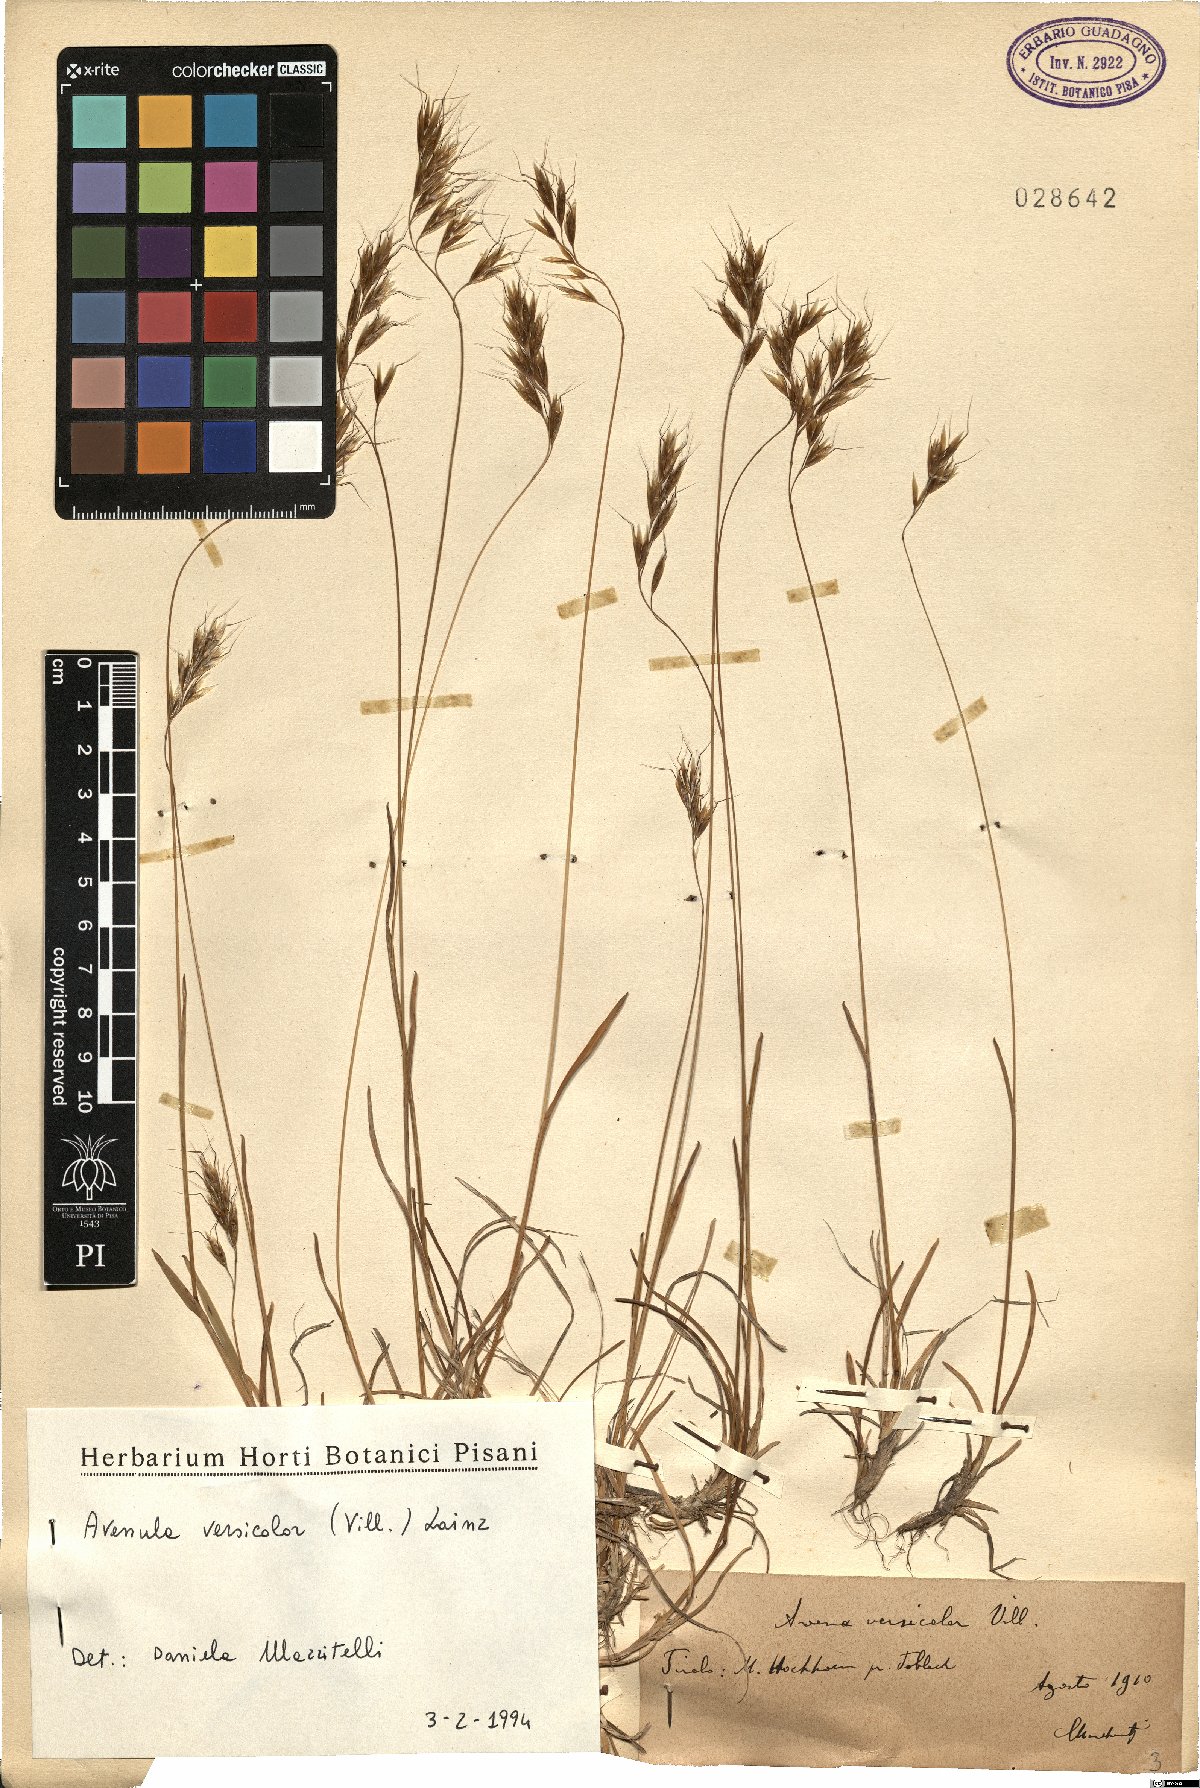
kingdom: Plantae
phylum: Tracheophyta
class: Liliopsida
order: Poales
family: Poaceae
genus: Helictochloa
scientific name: Helictochloa versicolor
